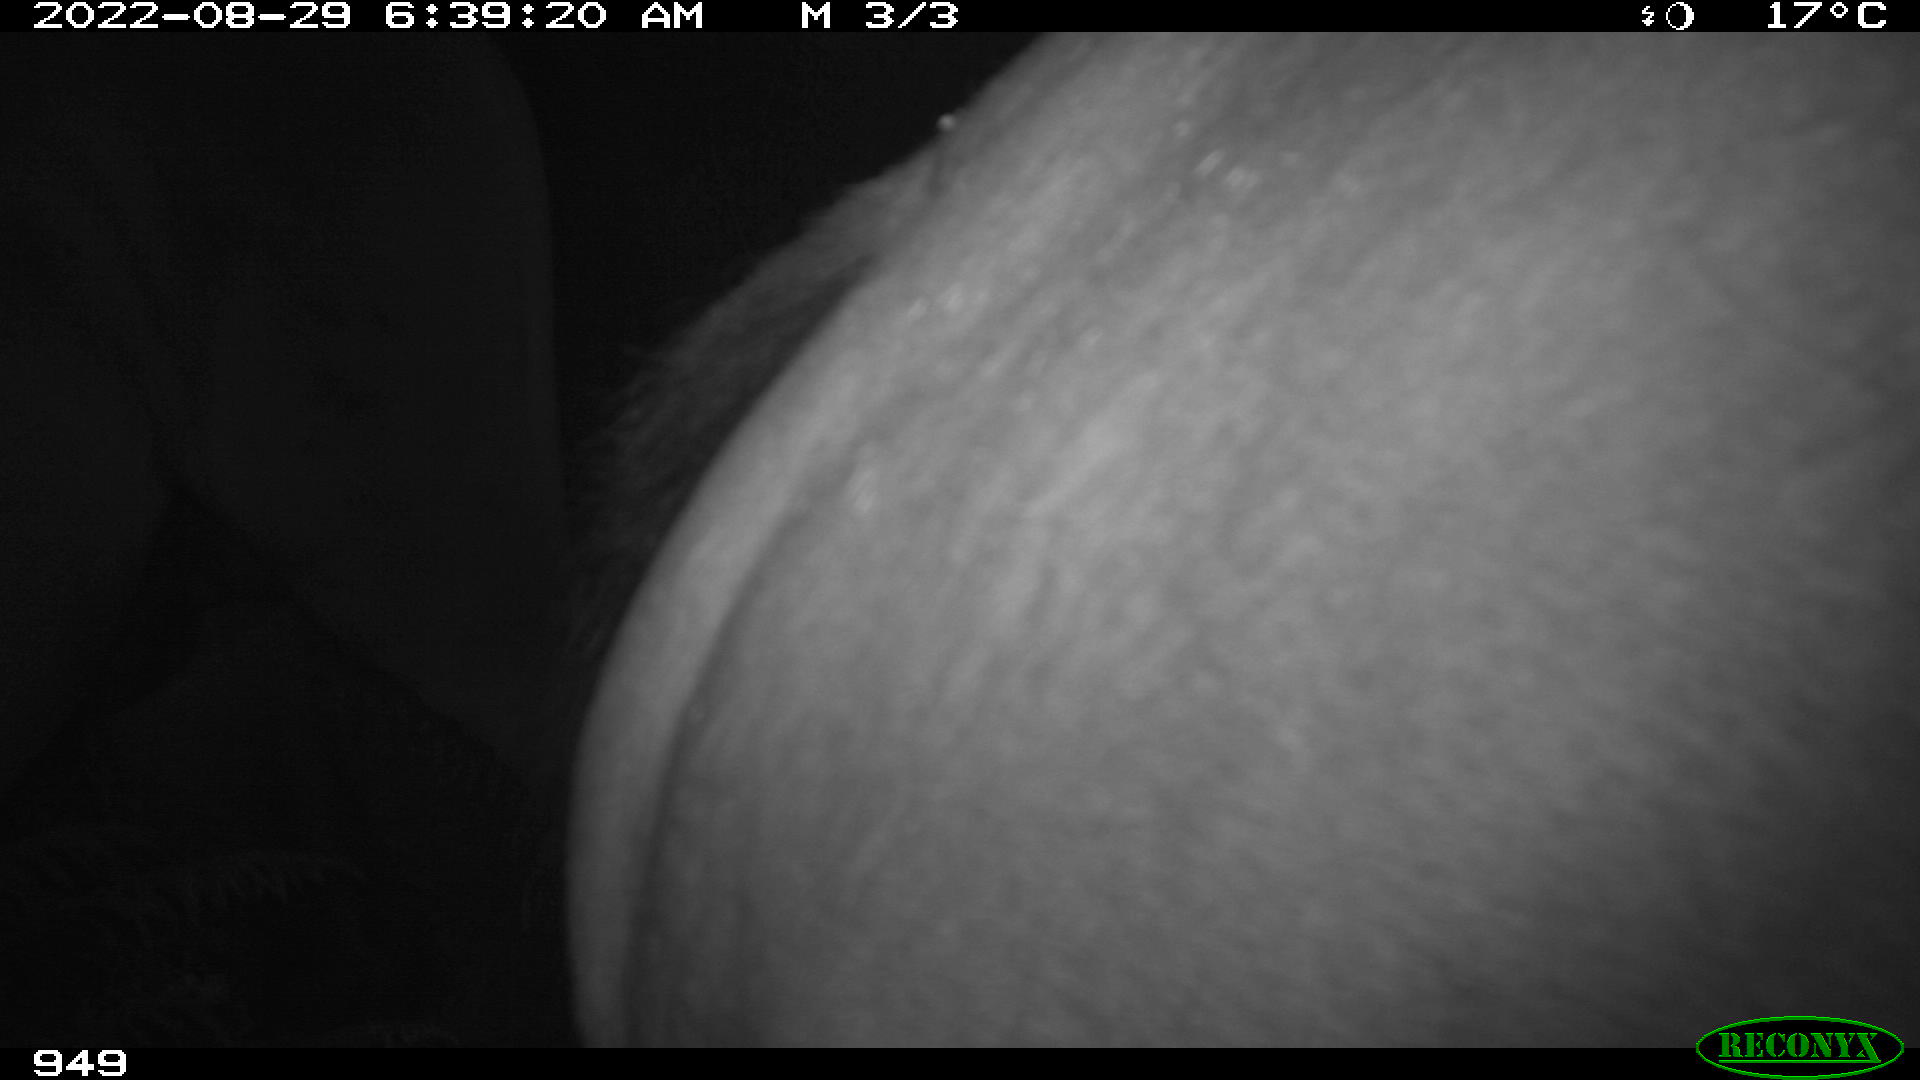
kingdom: Animalia
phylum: Chordata
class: Mammalia
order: Perissodactyla
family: Equidae
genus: Equus
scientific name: Equus caballus
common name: Horse
